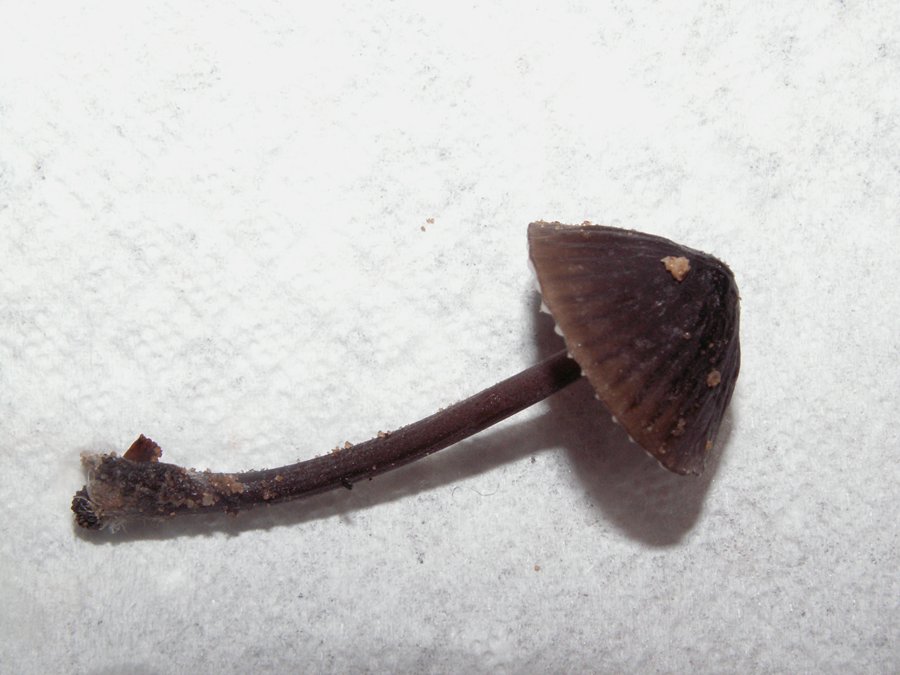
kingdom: Fungi
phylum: Basidiomycota
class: Agaricomycetes
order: Agaricales
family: Mycenaceae
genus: Mycena
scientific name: Mycena galopus
